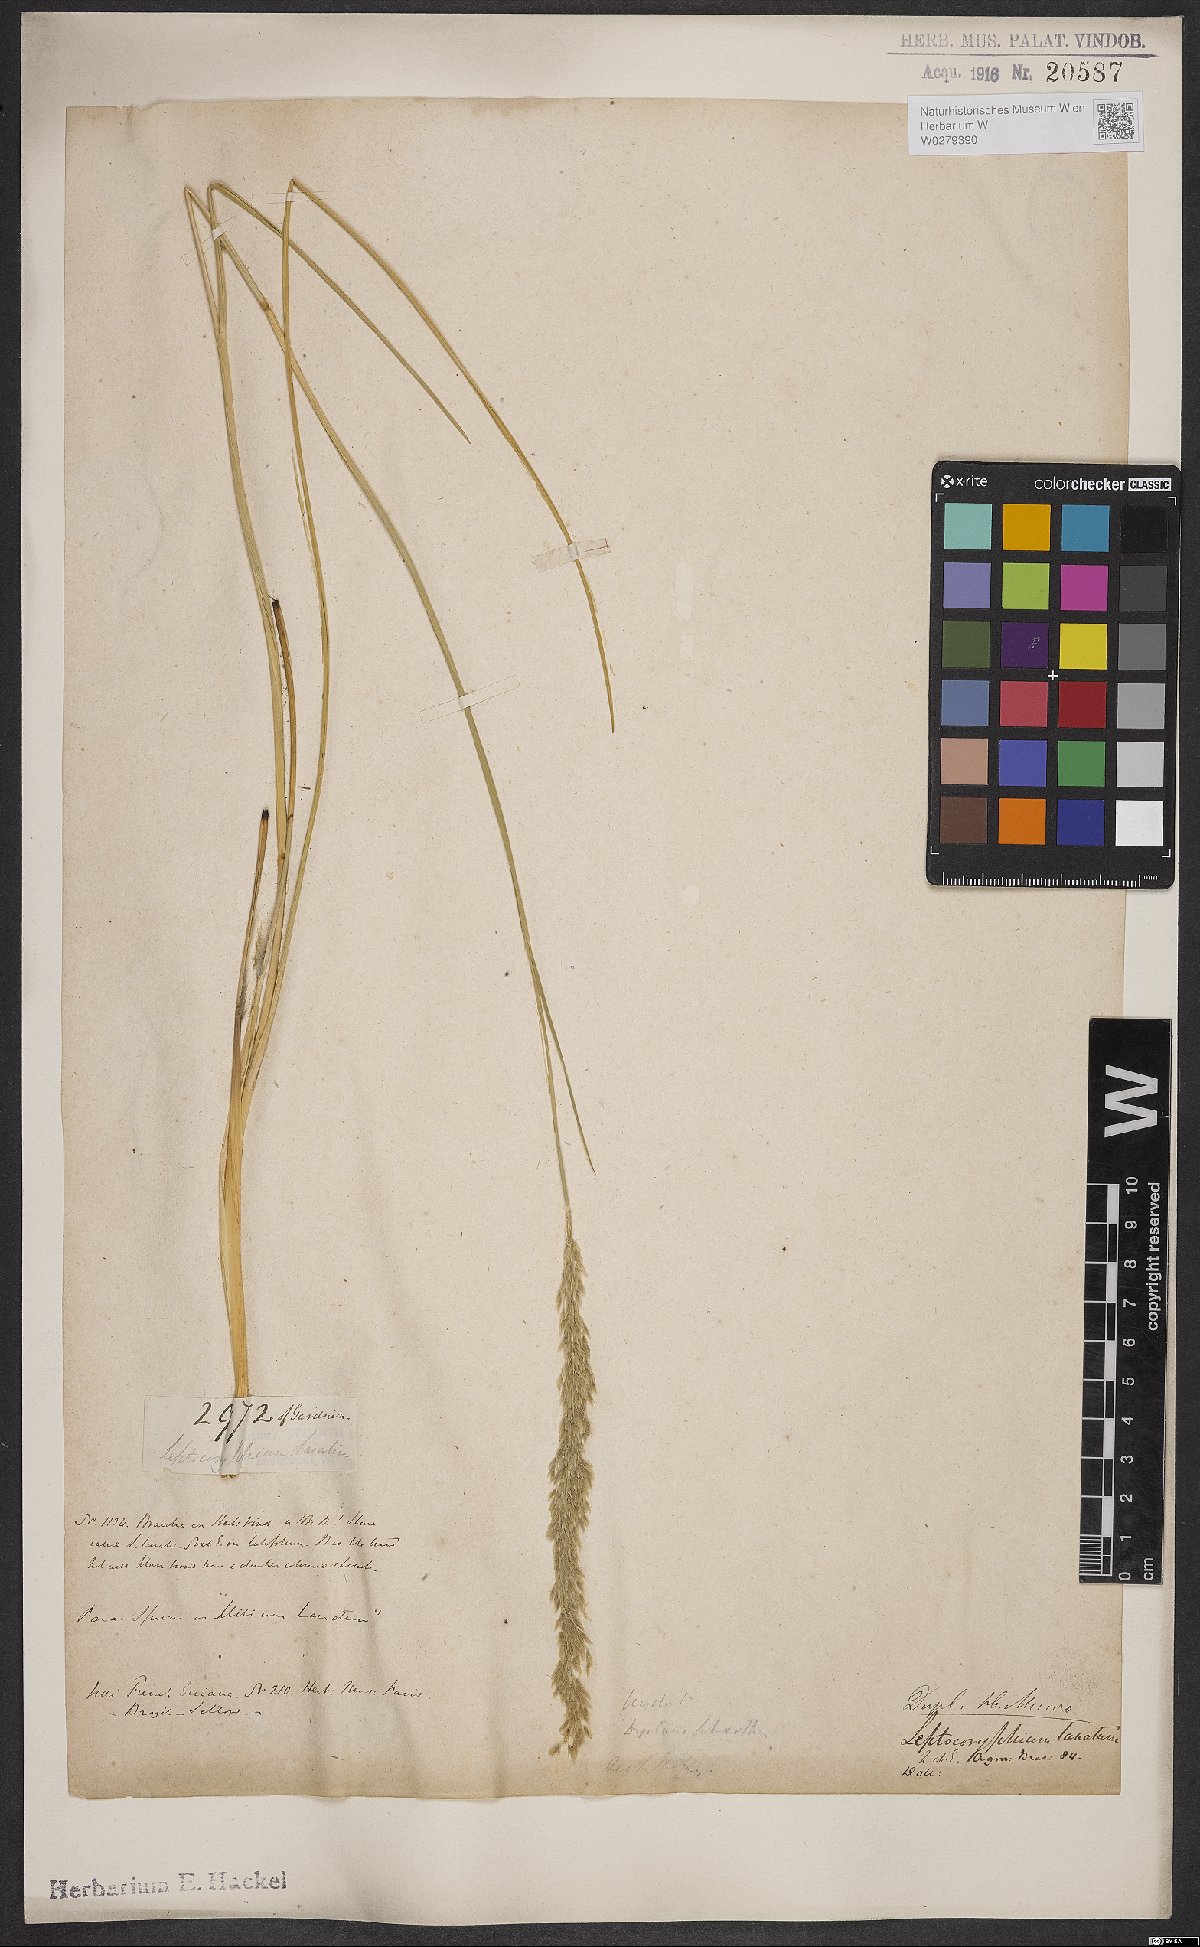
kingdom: Plantae
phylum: Tracheophyta
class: Liliopsida
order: Poales
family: Poaceae
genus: Anthaenantia
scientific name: Anthaenantia lanata
